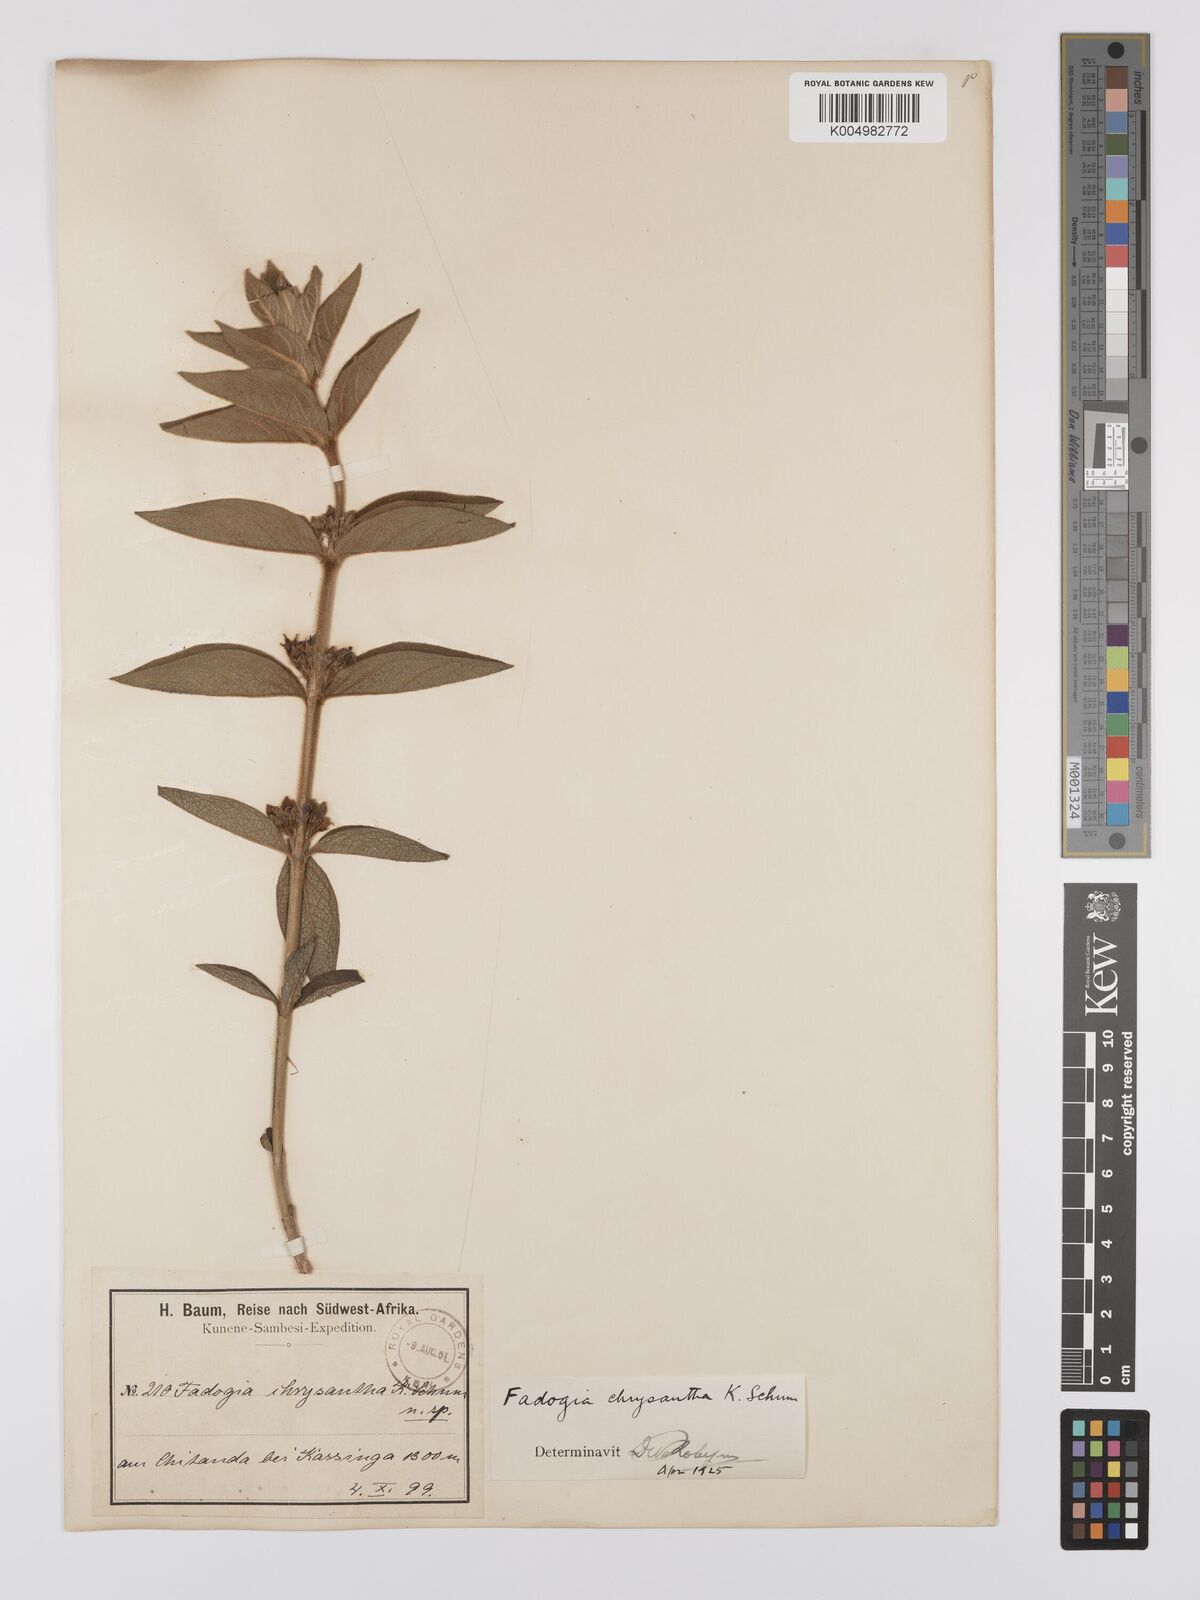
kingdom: Plantae
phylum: Tracheophyta
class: Magnoliopsida
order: Gentianales
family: Rubiaceae
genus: Fadogia
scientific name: Fadogia chrysantha
